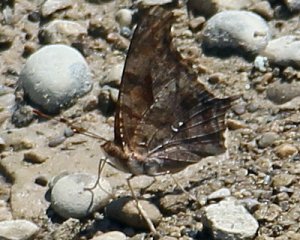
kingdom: Animalia
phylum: Arthropoda
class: Insecta
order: Lepidoptera
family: Nymphalidae
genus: Polygonia
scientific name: Polygonia interrogationis
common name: Question Mark
